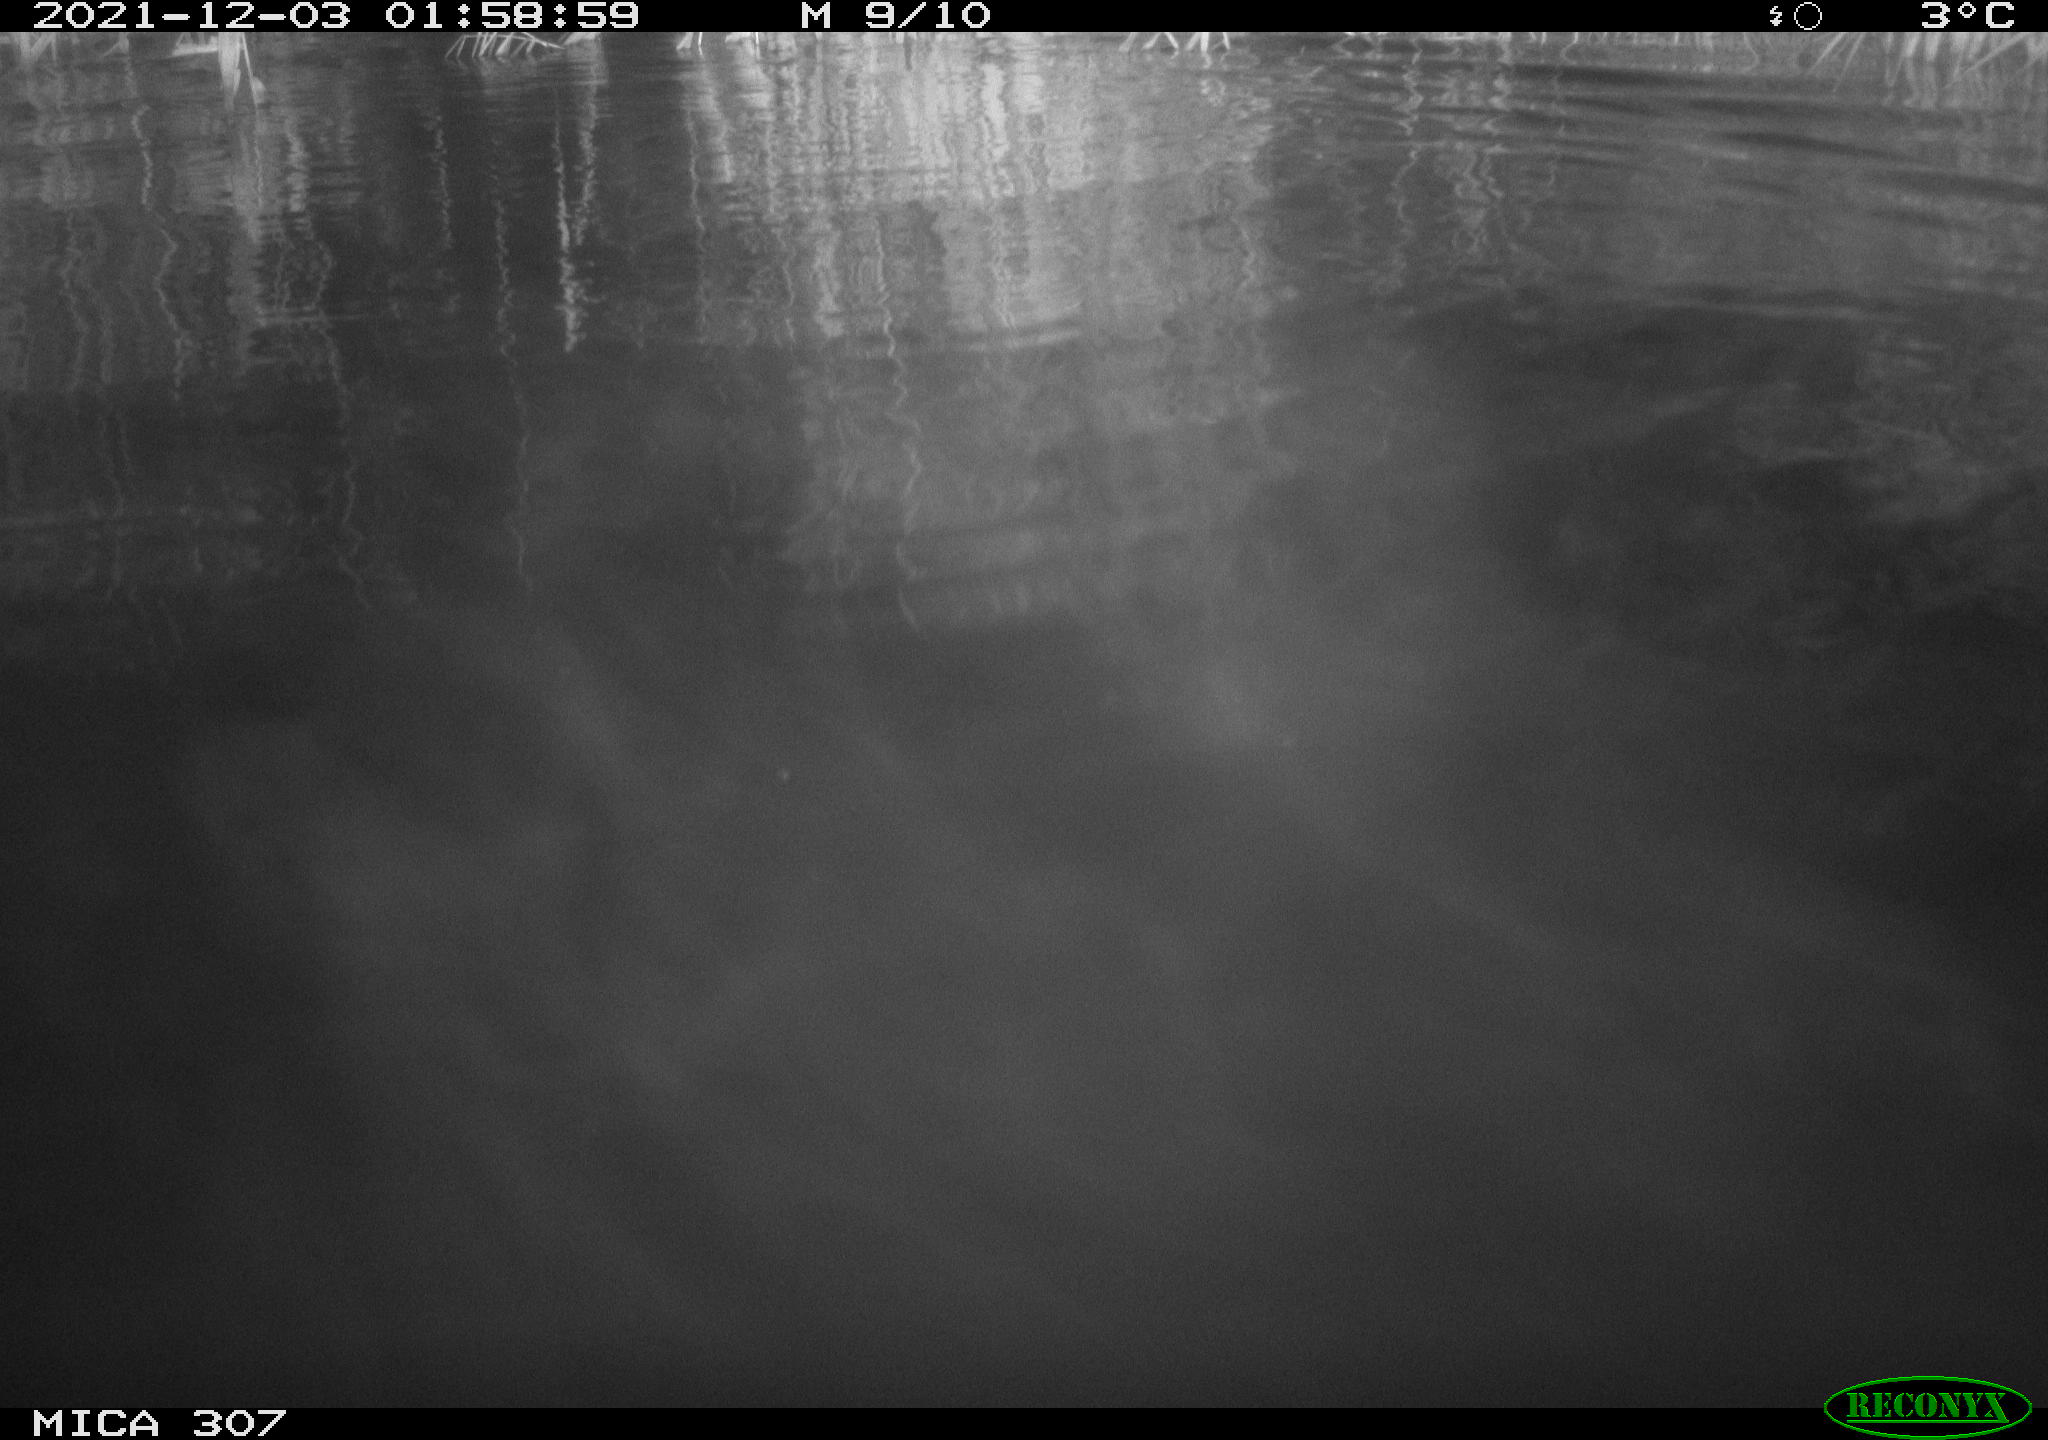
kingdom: Animalia
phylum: Chordata
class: Mammalia
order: Rodentia
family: Cricetidae
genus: Ondatra
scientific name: Ondatra zibethicus
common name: Muskrat
